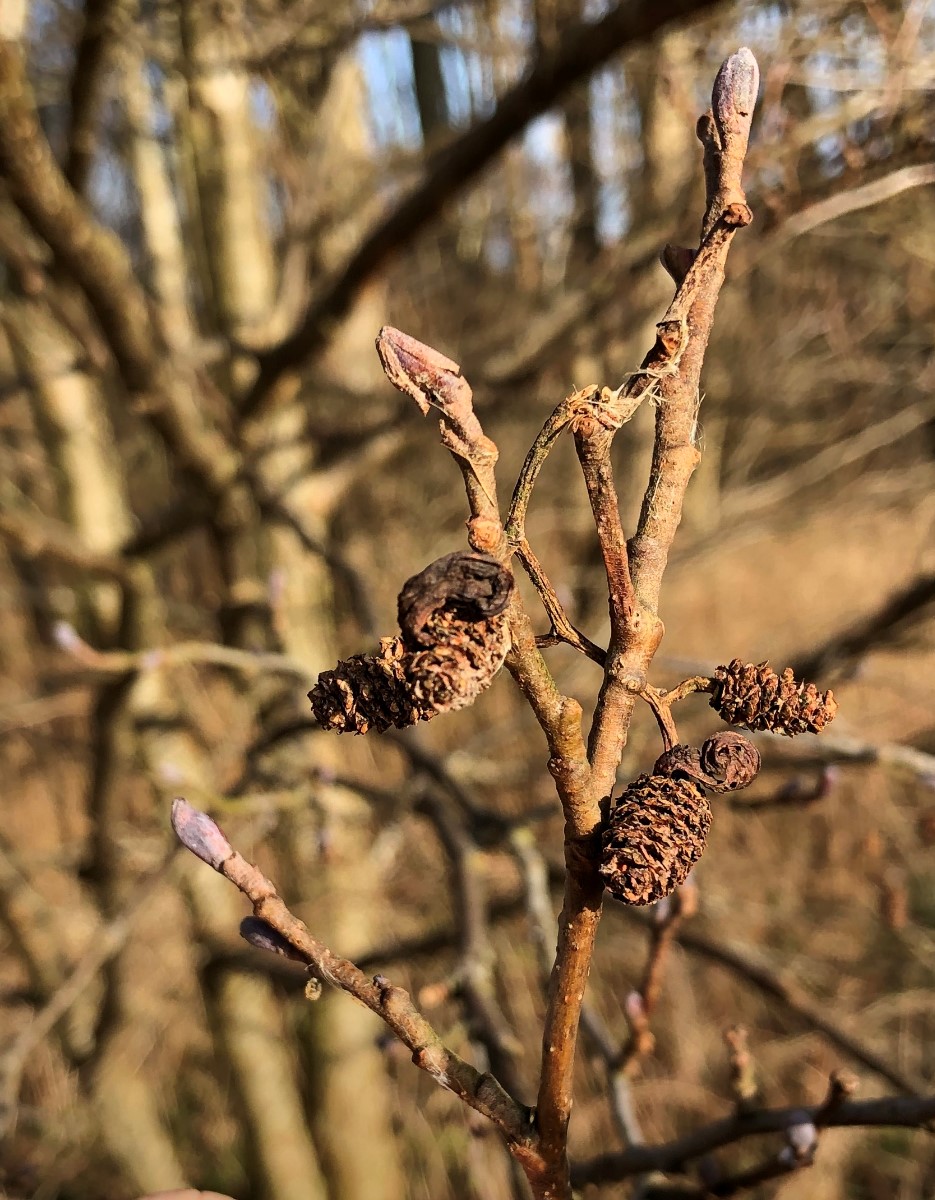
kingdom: Fungi
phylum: Ascomycota
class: Taphrinomycetes
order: Taphrinales
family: Taphrinaceae
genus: Taphrina
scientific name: Taphrina alni
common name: Alder tongue
